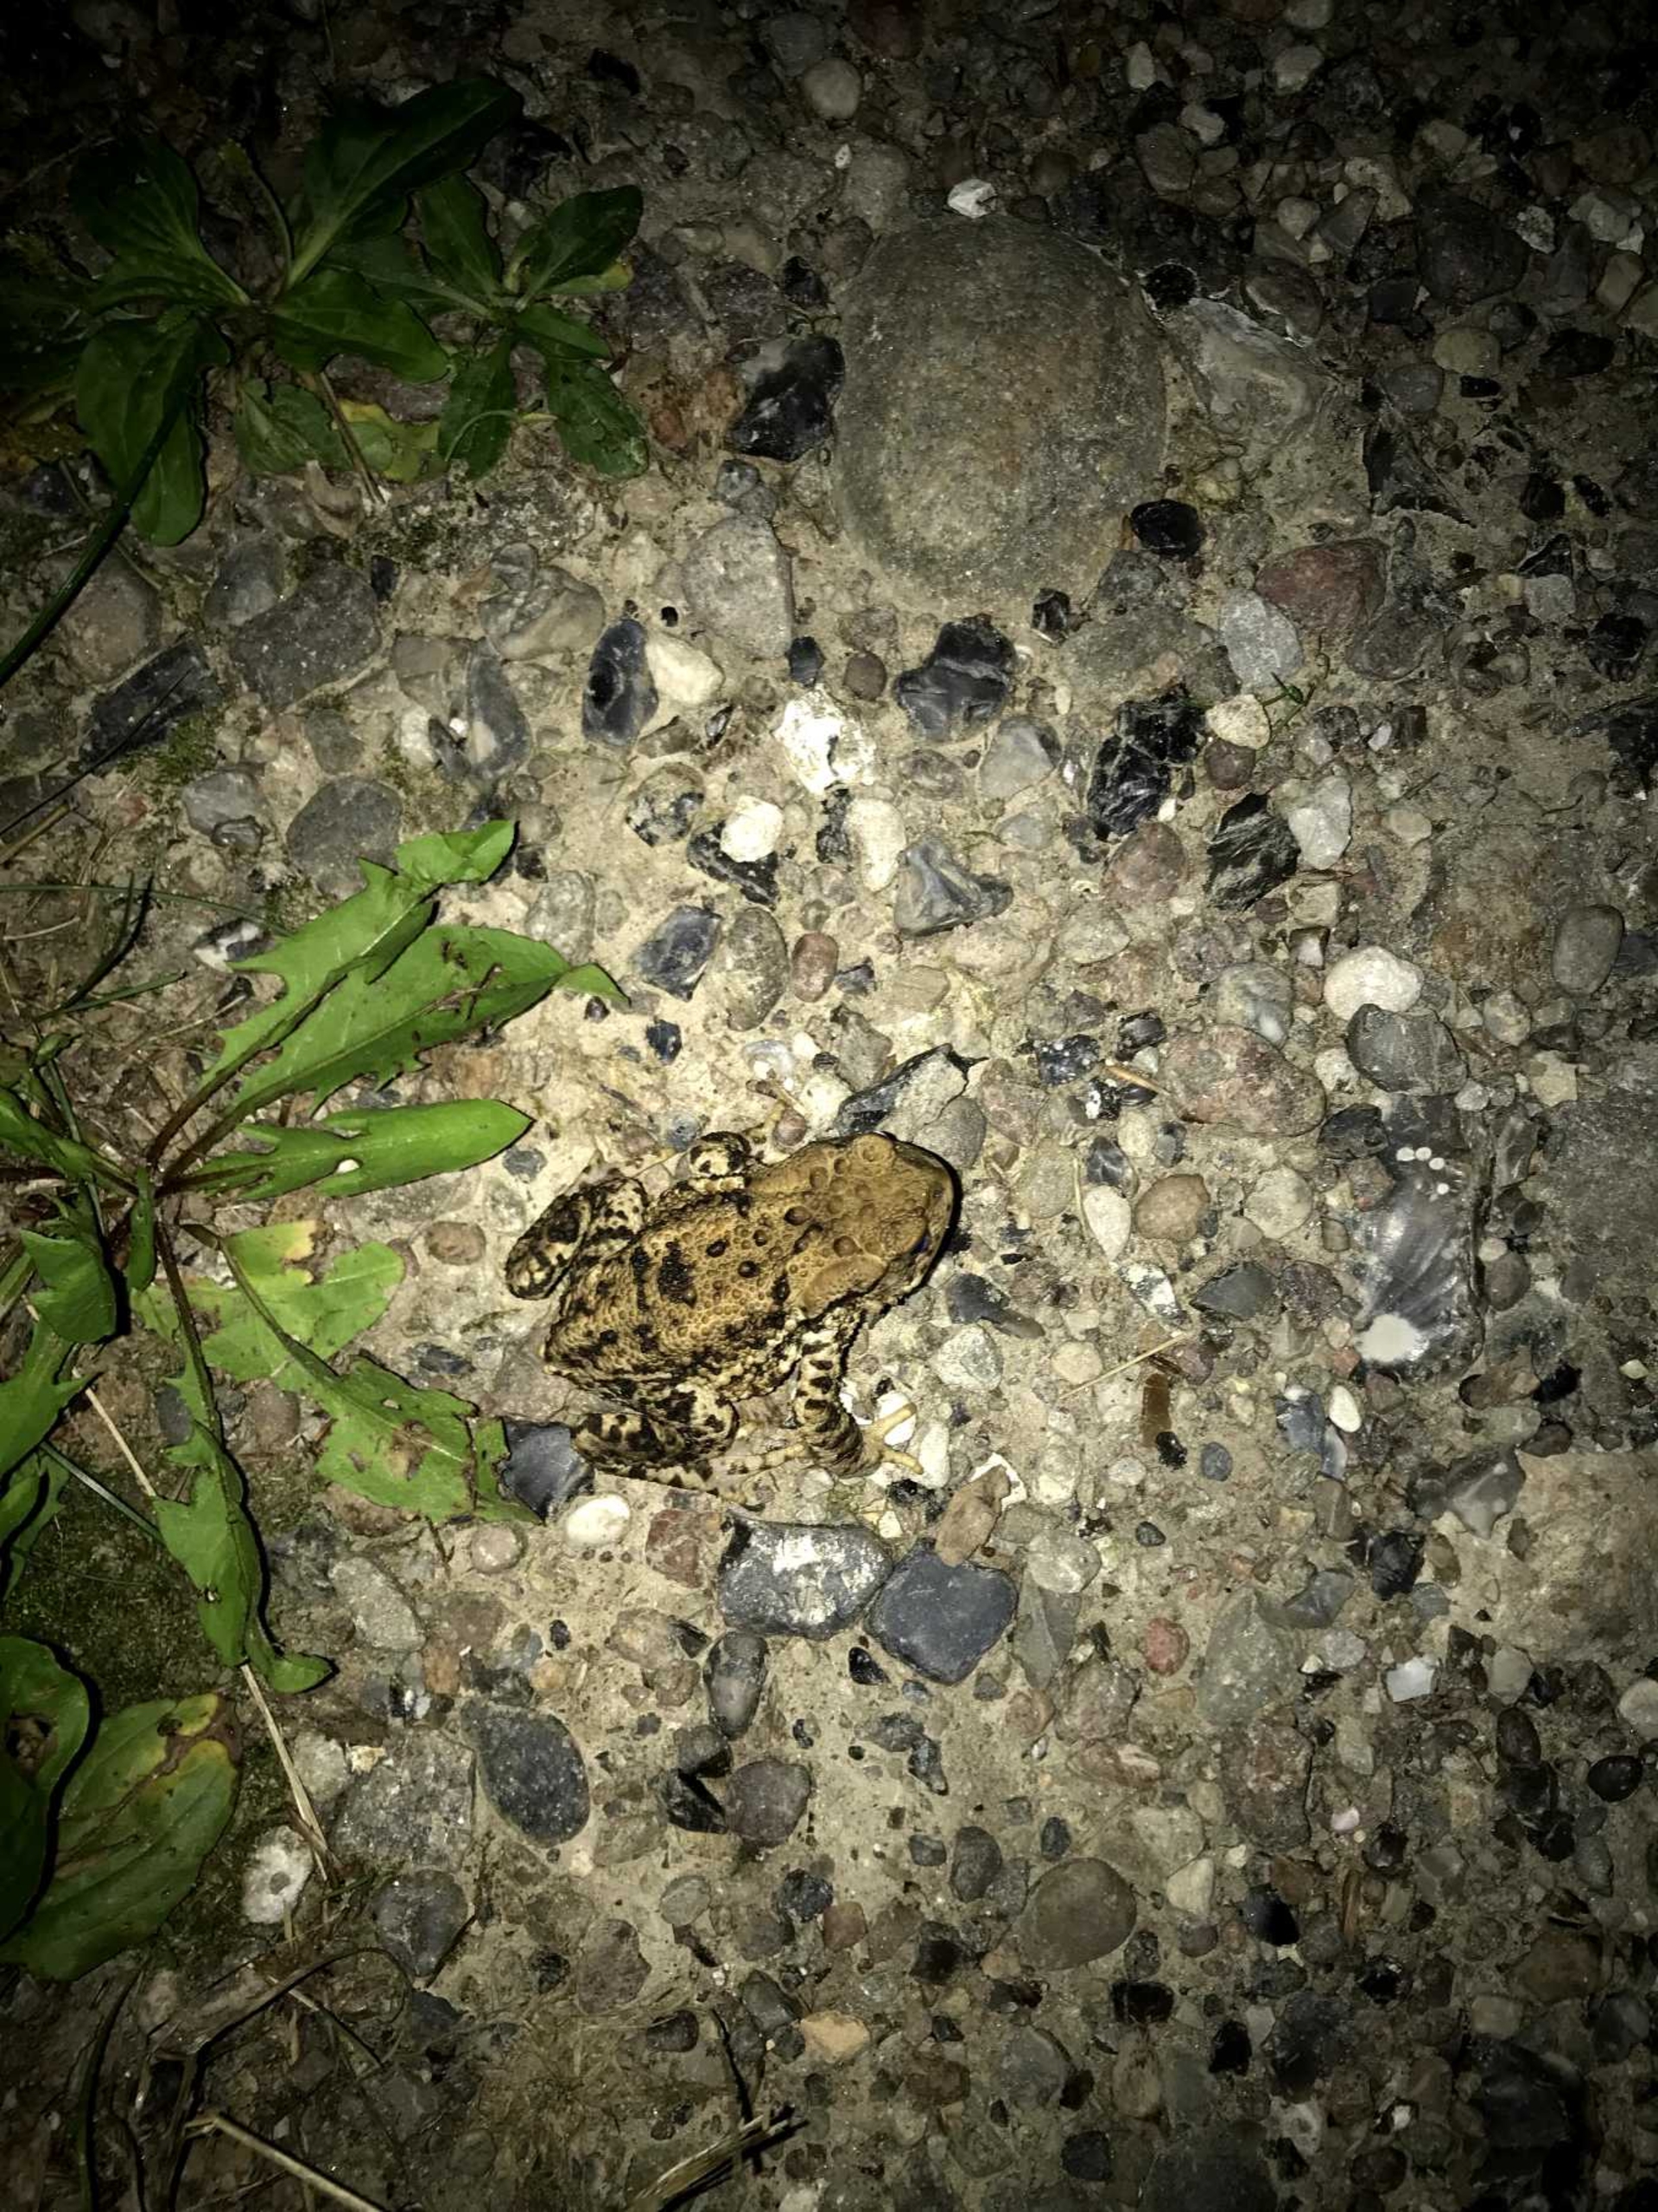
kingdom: Animalia
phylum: Chordata
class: Amphibia
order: Anura
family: Bufonidae
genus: Bufo
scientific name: Bufo bufo
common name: Skrubtudse
